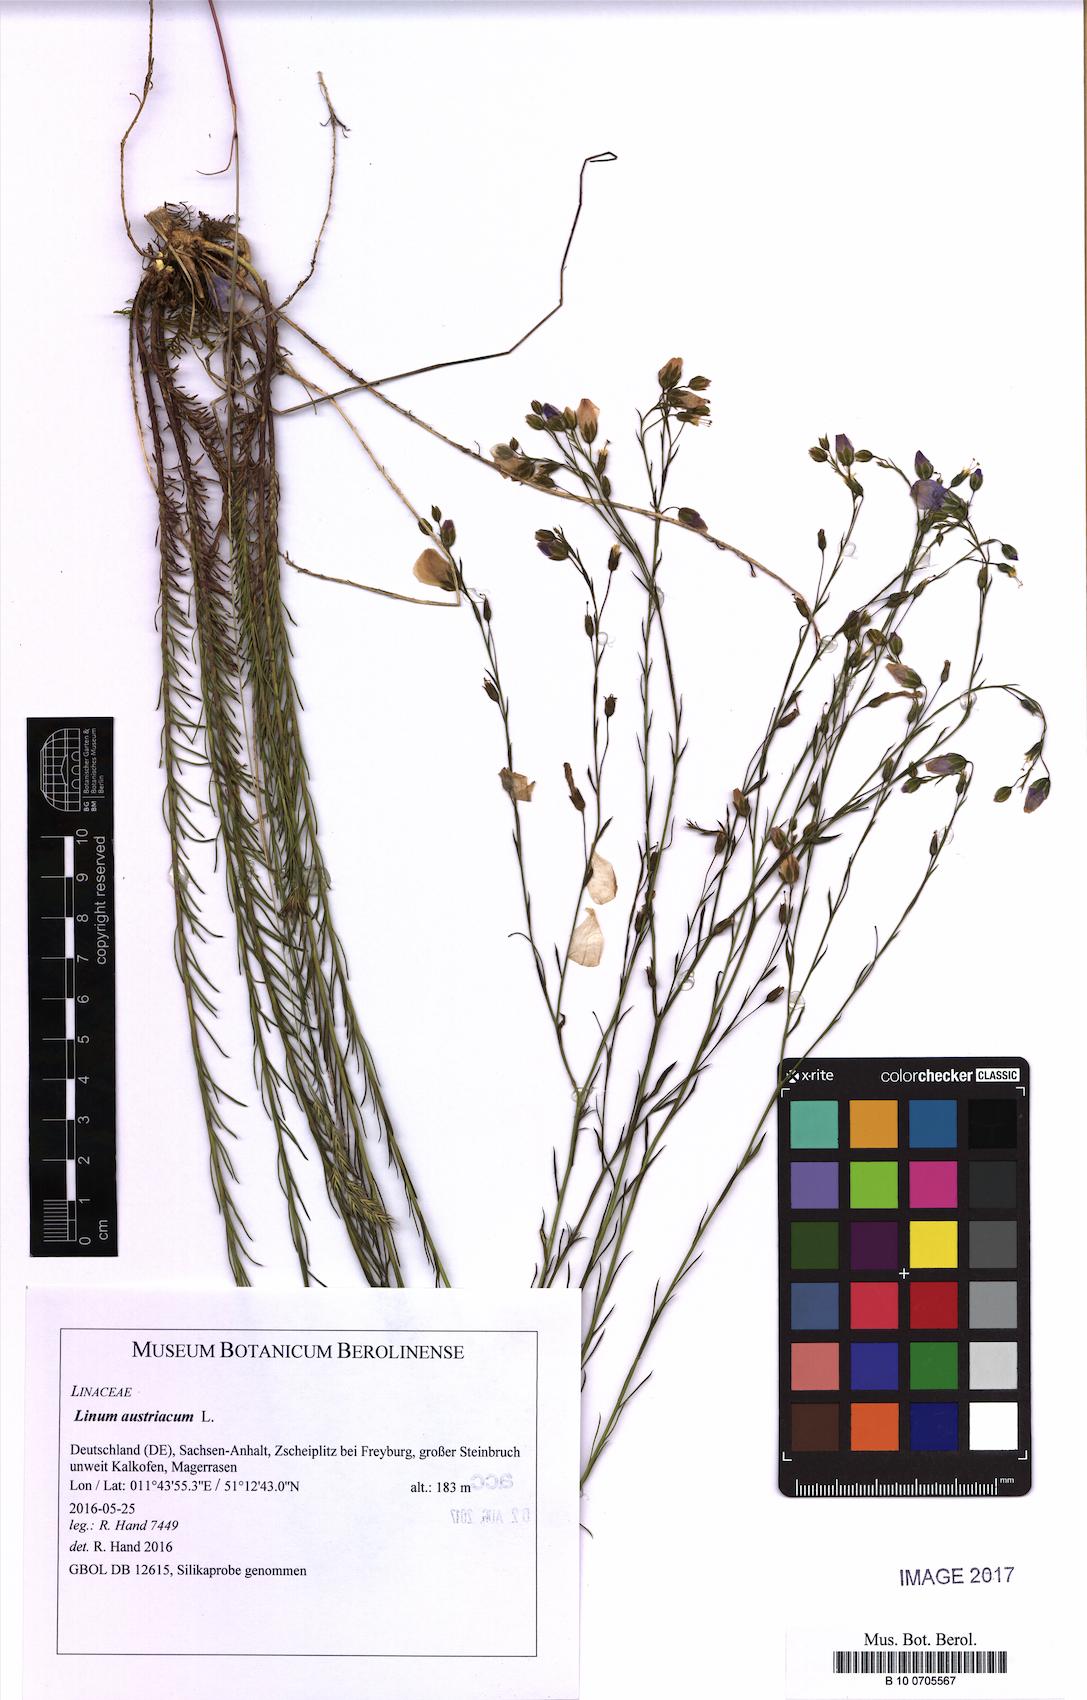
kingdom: Plantae
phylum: Tracheophyta
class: Magnoliopsida
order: Malpighiales
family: Linaceae
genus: Linum
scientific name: Linum austriacum
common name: Austrian flax
